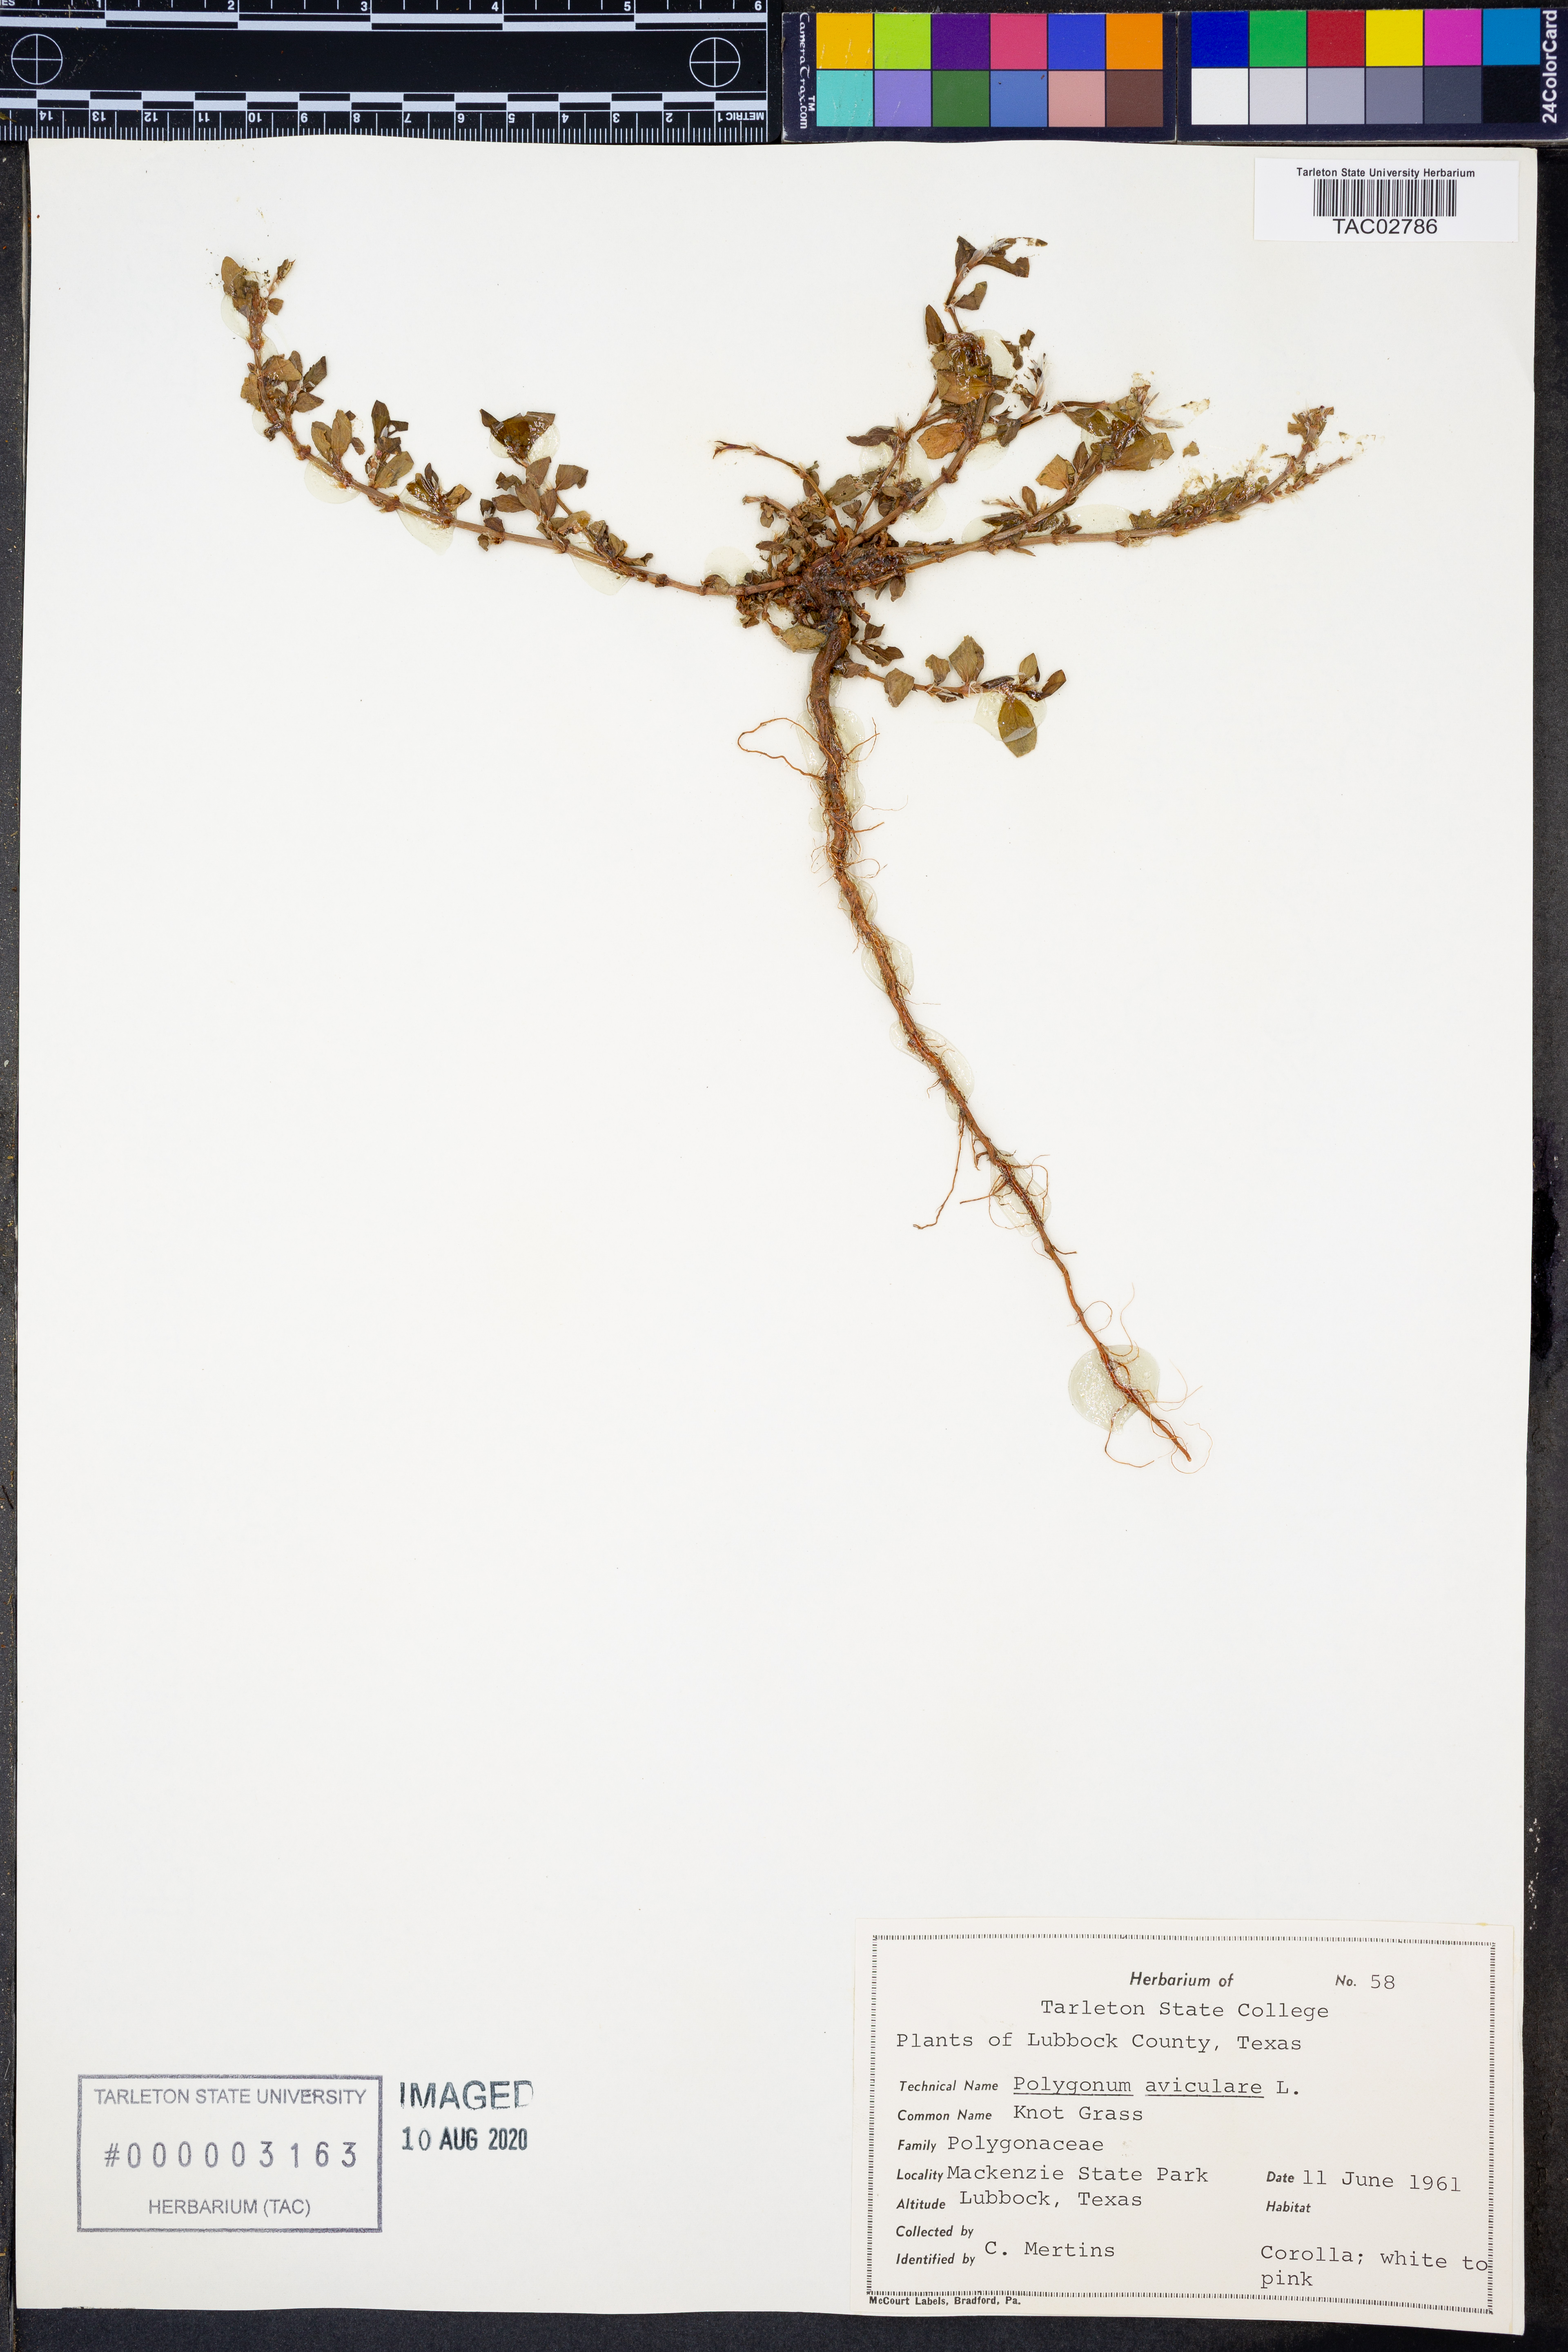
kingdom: Plantae
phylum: Tracheophyta
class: Magnoliopsida
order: Caryophyllales
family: Polygonaceae
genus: Polygonum
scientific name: Polygonum aviculare
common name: Prostrate knotweed
